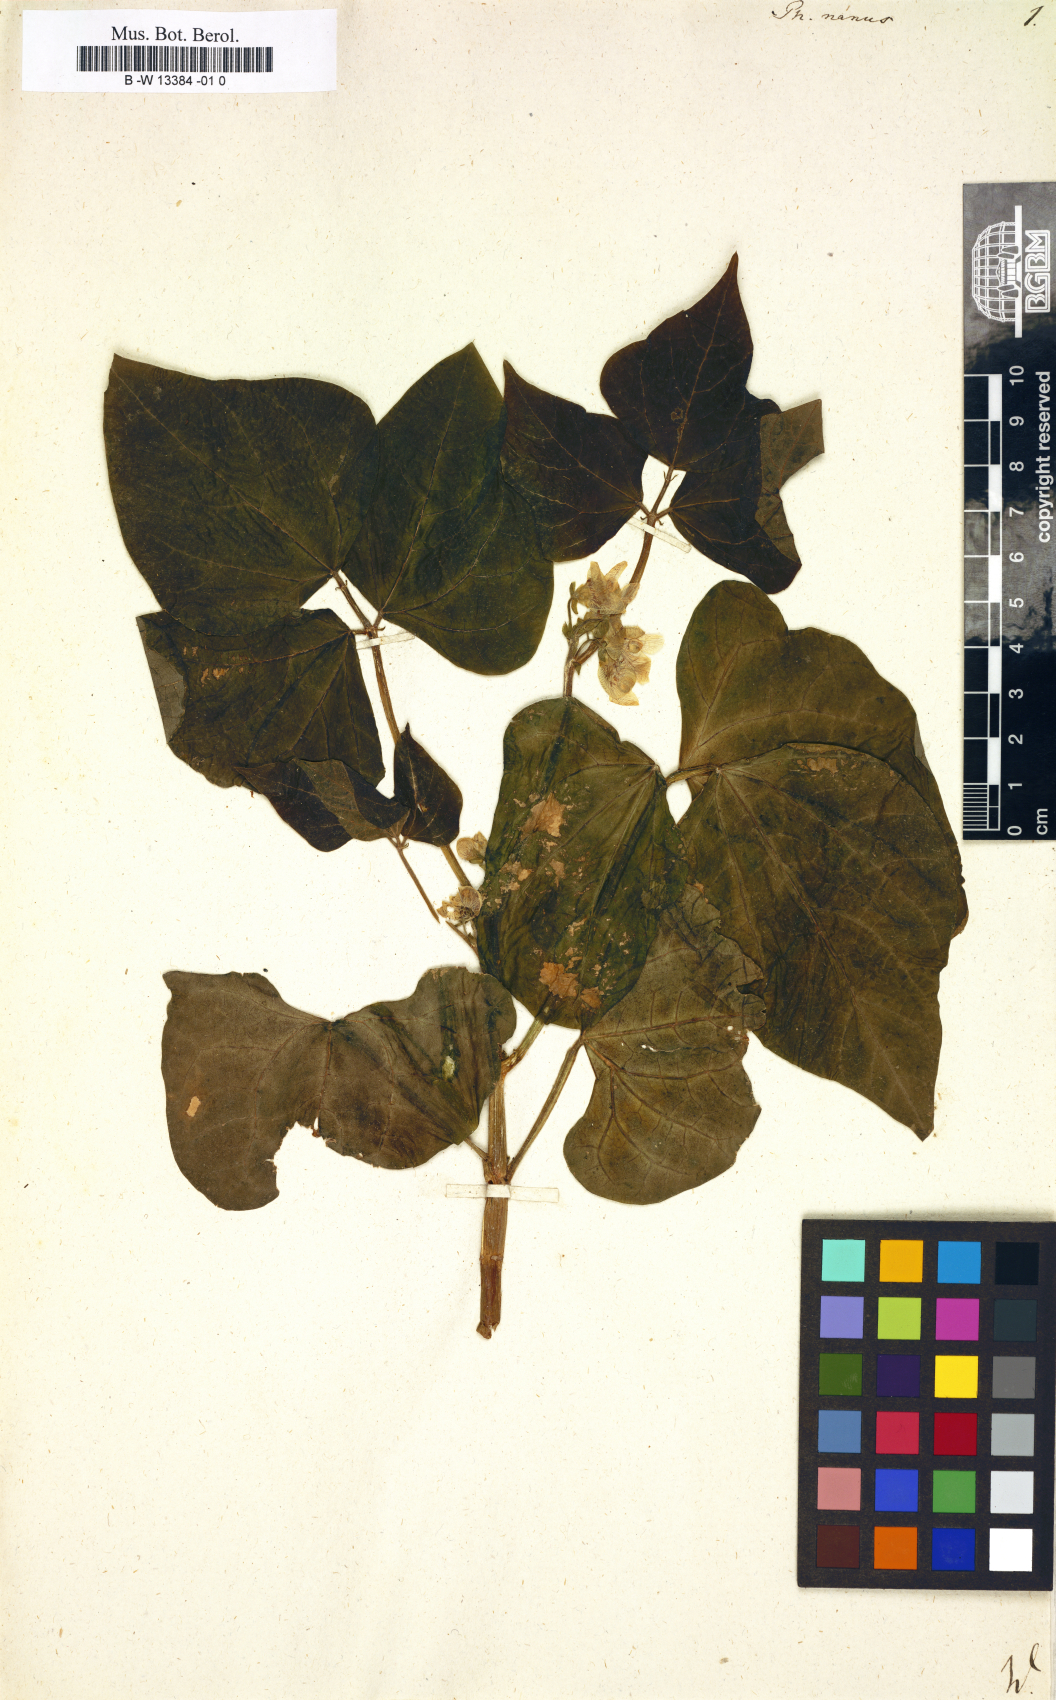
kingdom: Plantae
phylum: Tracheophyta
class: Magnoliopsida
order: Fabales
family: Fabaceae
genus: Phaseolus
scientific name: Phaseolus vulgaris
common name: Bean
